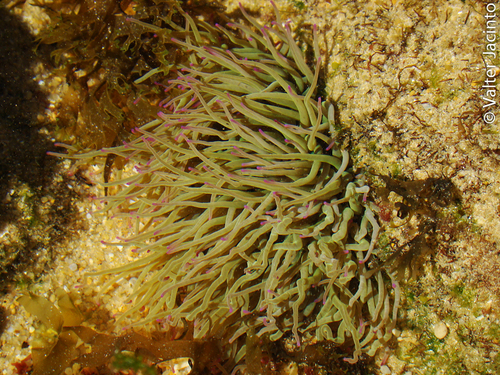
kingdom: Animalia
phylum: Cnidaria
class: Anthozoa
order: Actiniaria
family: Actiniidae
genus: Anemonia
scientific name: Anemonia viridis
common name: Snakelocks anemone
